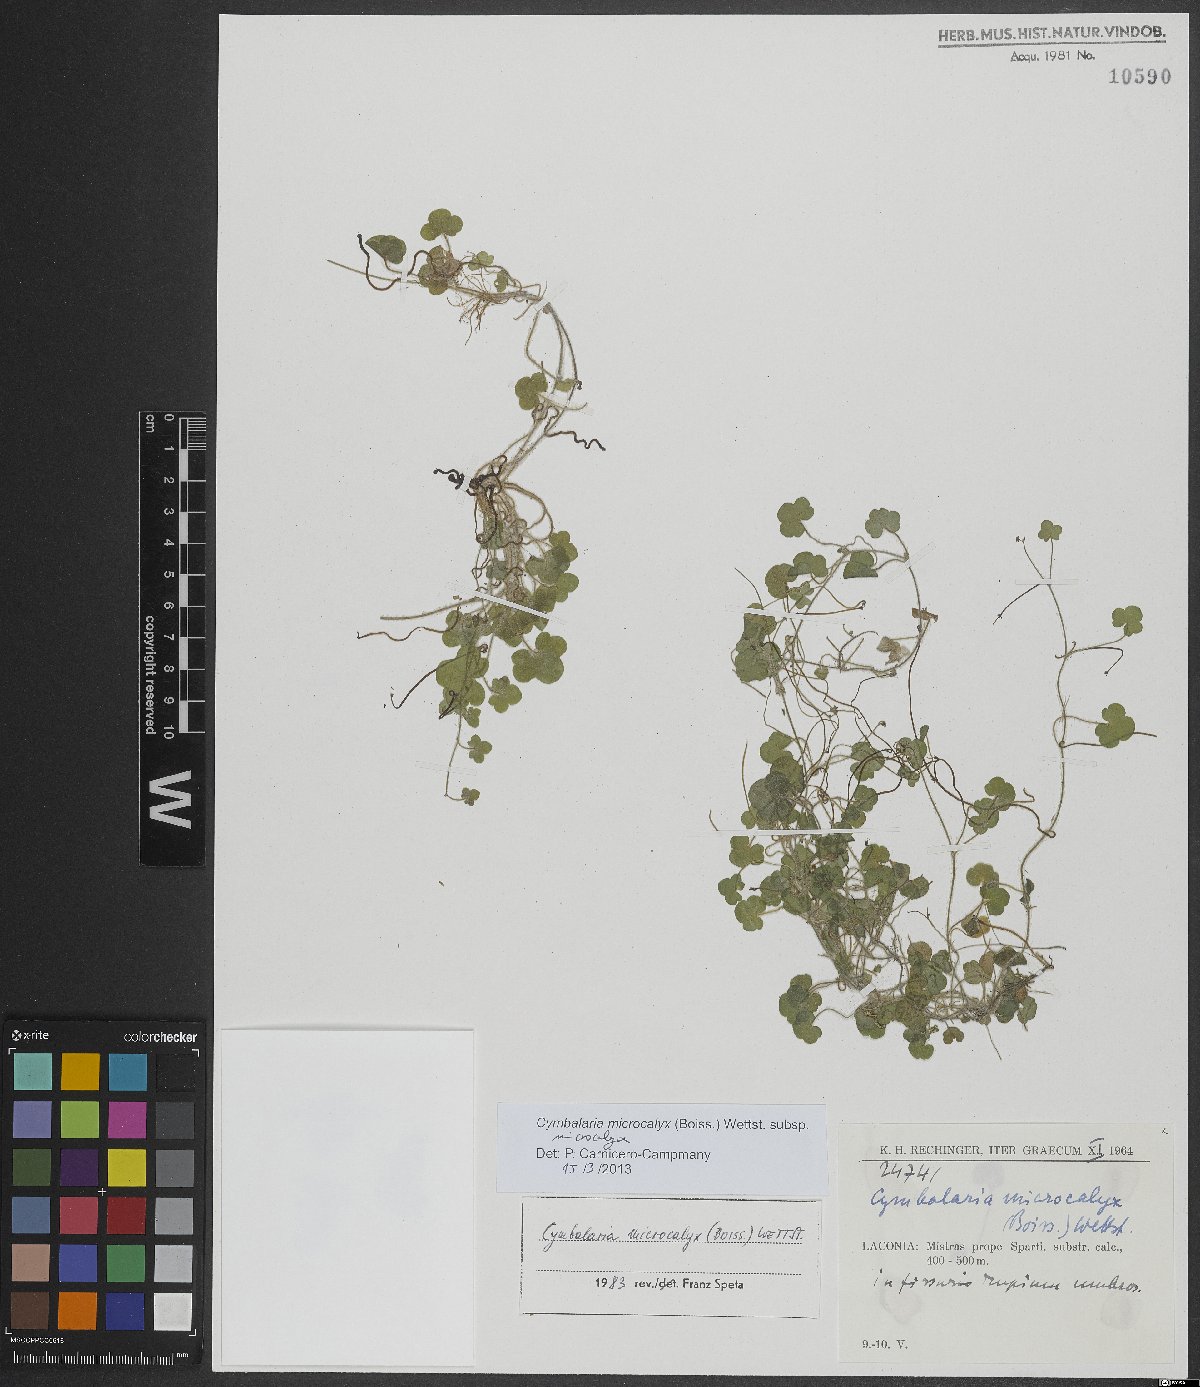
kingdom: Plantae
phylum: Tracheophyta
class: Magnoliopsida
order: Lamiales
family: Plantaginaceae
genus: Cymbalaria
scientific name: Cymbalaria microcalyx
